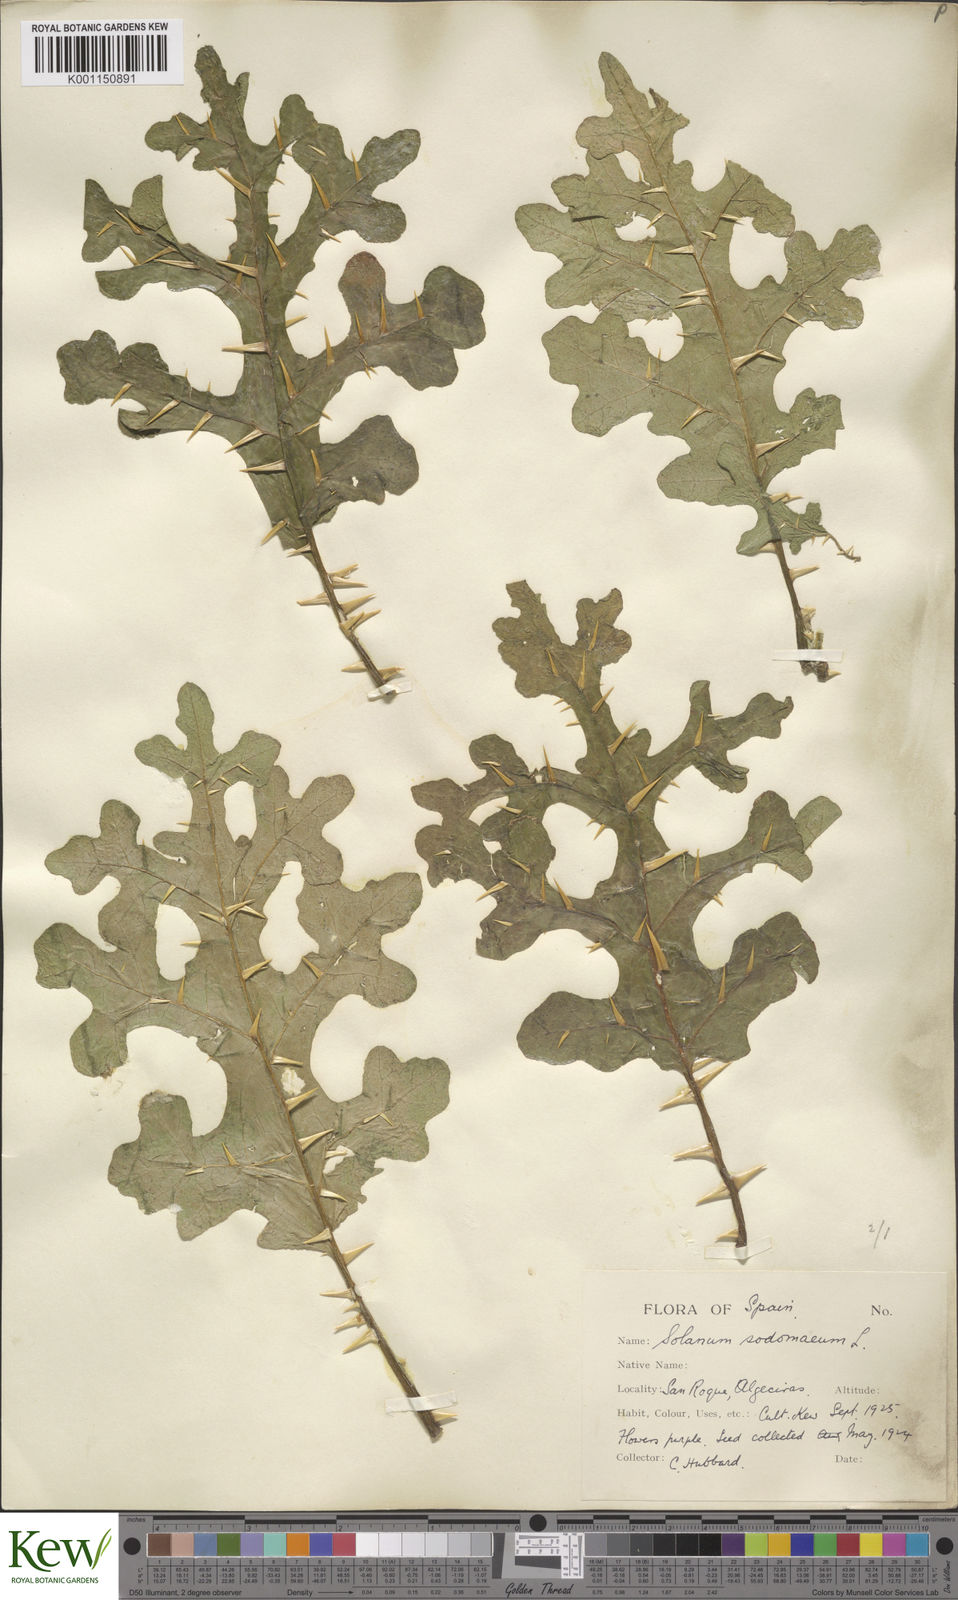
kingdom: Plantae
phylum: Tracheophyta
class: Magnoliopsida
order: Solanales
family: Solanaceae
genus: Solanum
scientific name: Solanum anguivi
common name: Forest bitterberry
